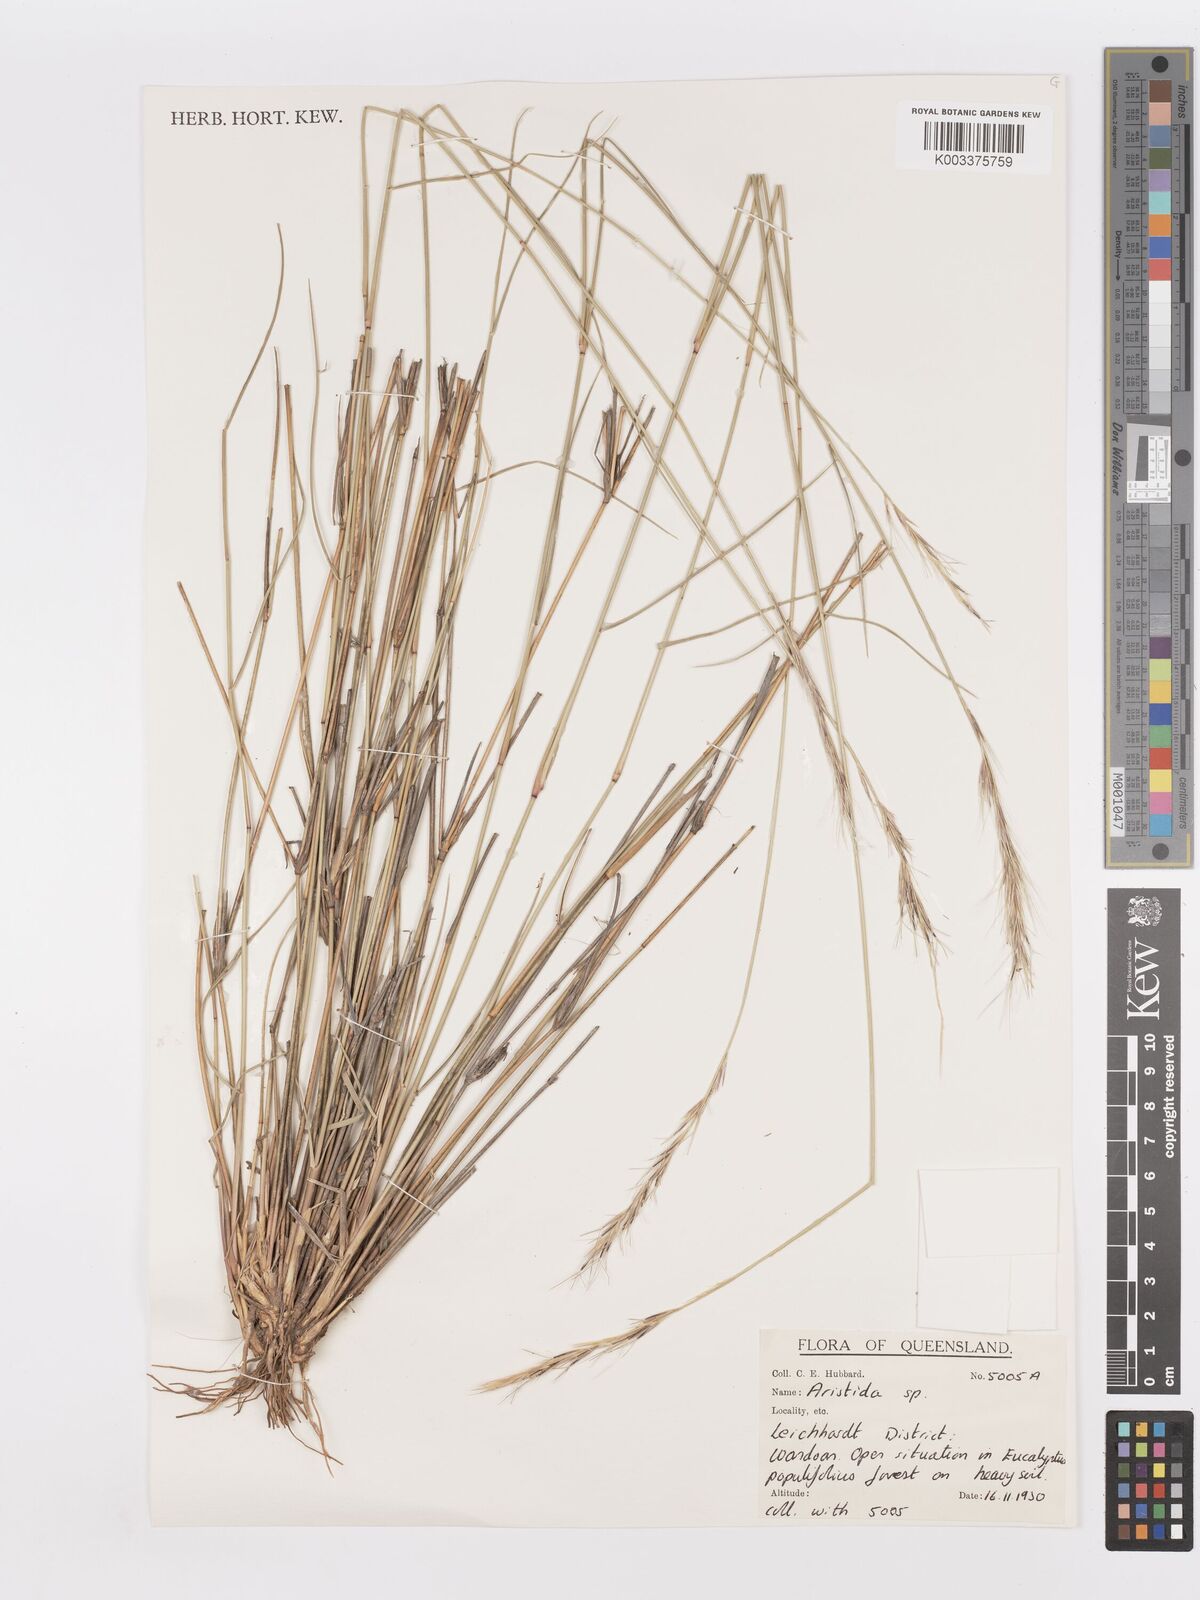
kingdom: Plantae
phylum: Tracheophyta
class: Liliopsida
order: Poales
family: Poaceae
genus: Aristida
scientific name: Aristida
